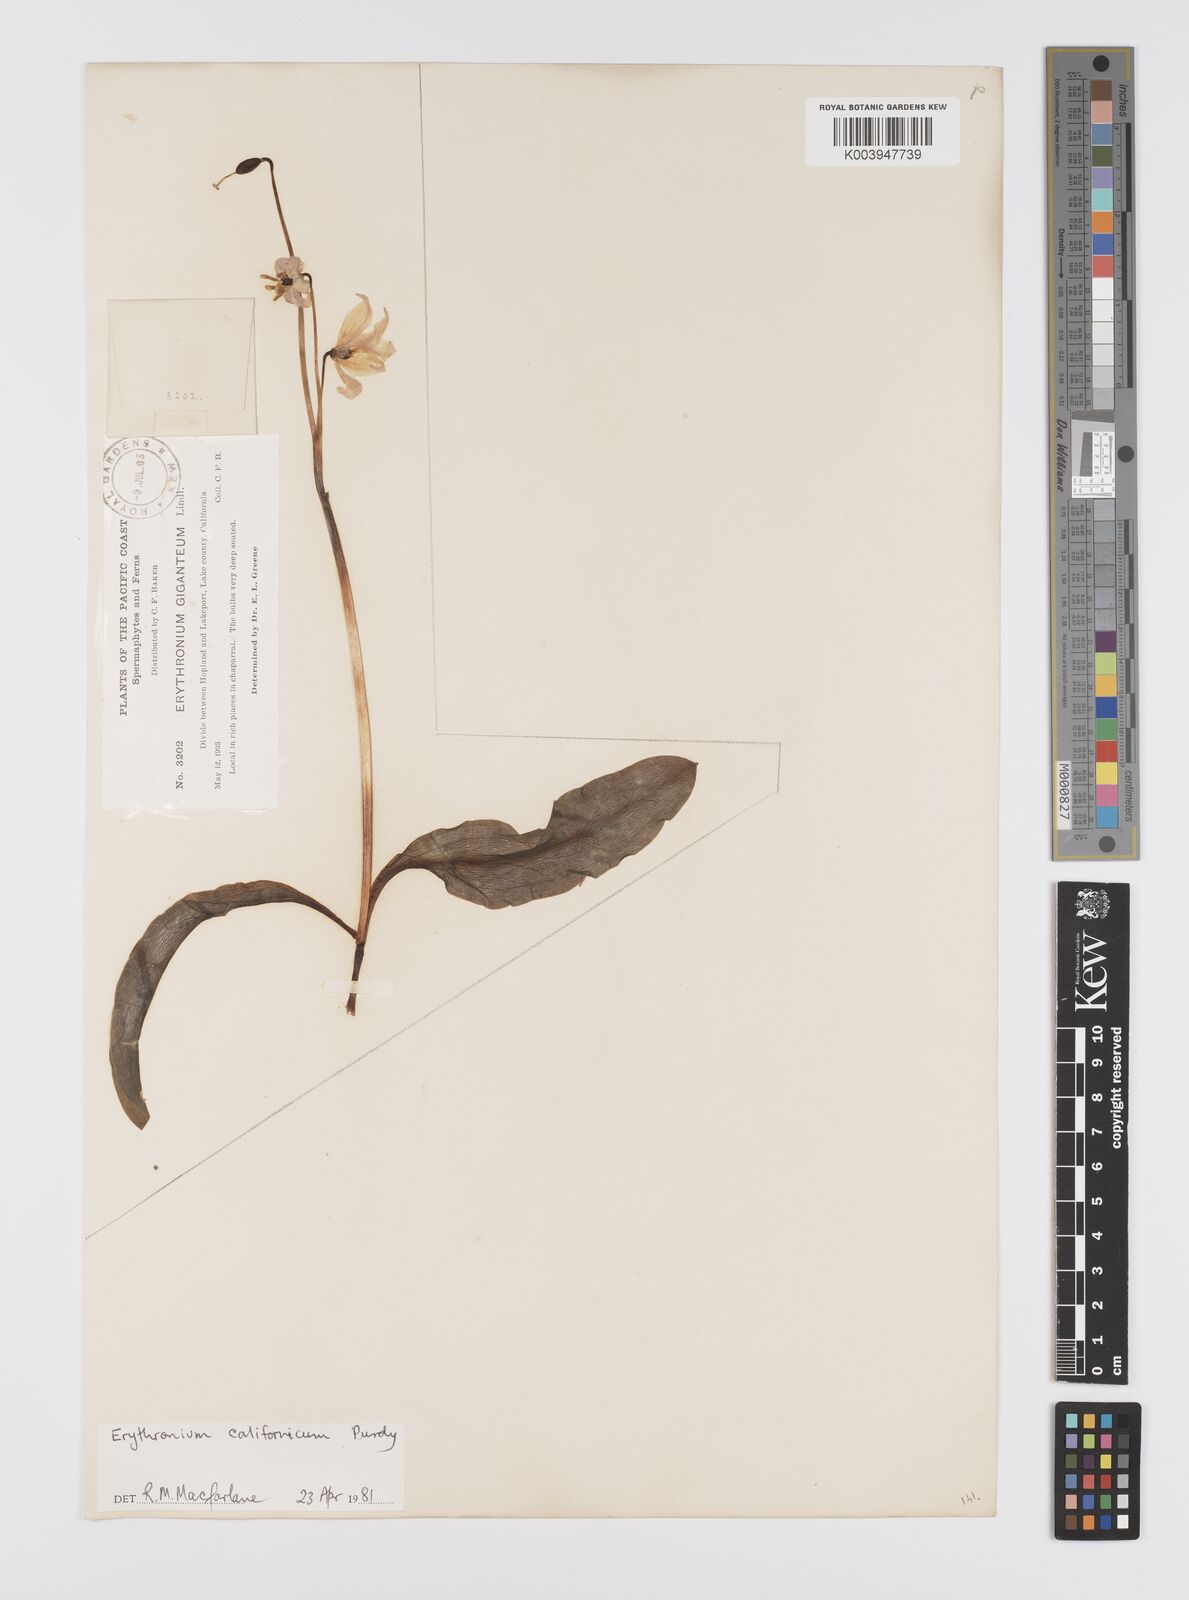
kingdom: Plantae
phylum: Tracheophyta
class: Liliopsida
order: Liliales
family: Liliaceae
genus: Erythronium
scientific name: Erythronium californicum
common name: Fawn-lily
